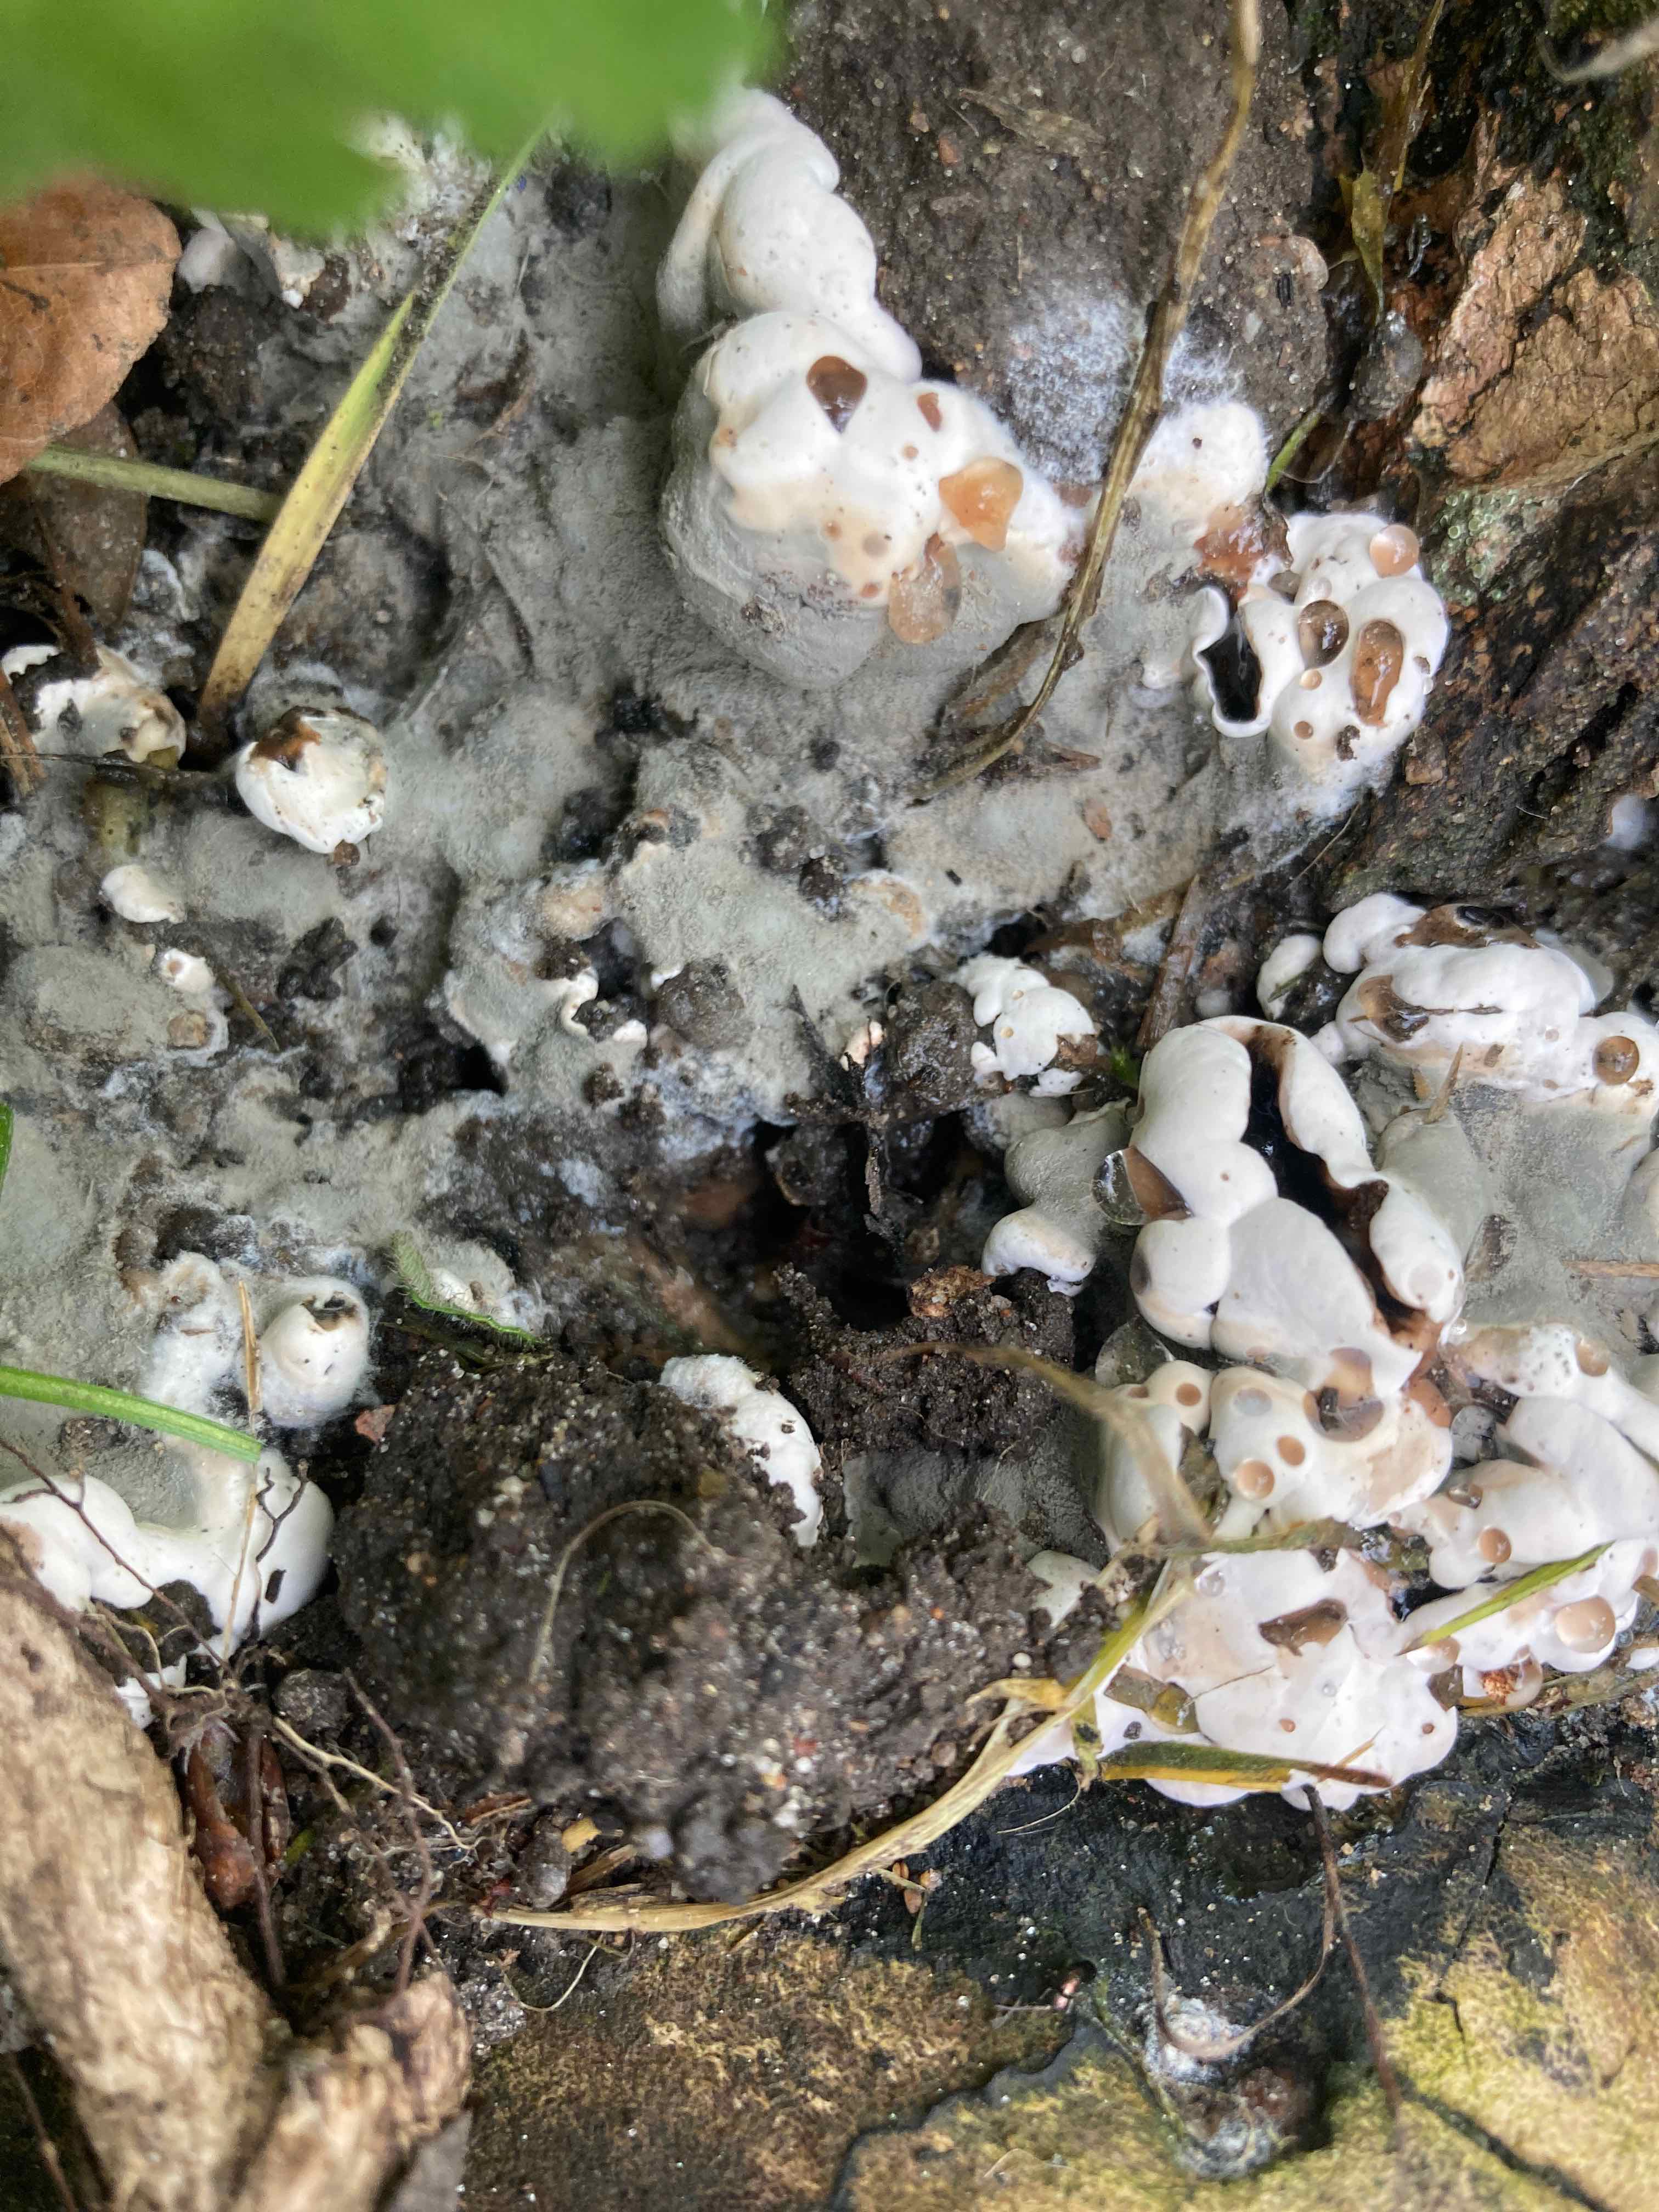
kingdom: Fungi
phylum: Ascomycota
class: Sordariomycetes
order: Xylariales
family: Xylariaceae
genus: Kretzschmaria
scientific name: Kretzschmaria deusta
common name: stor kulsvamp
